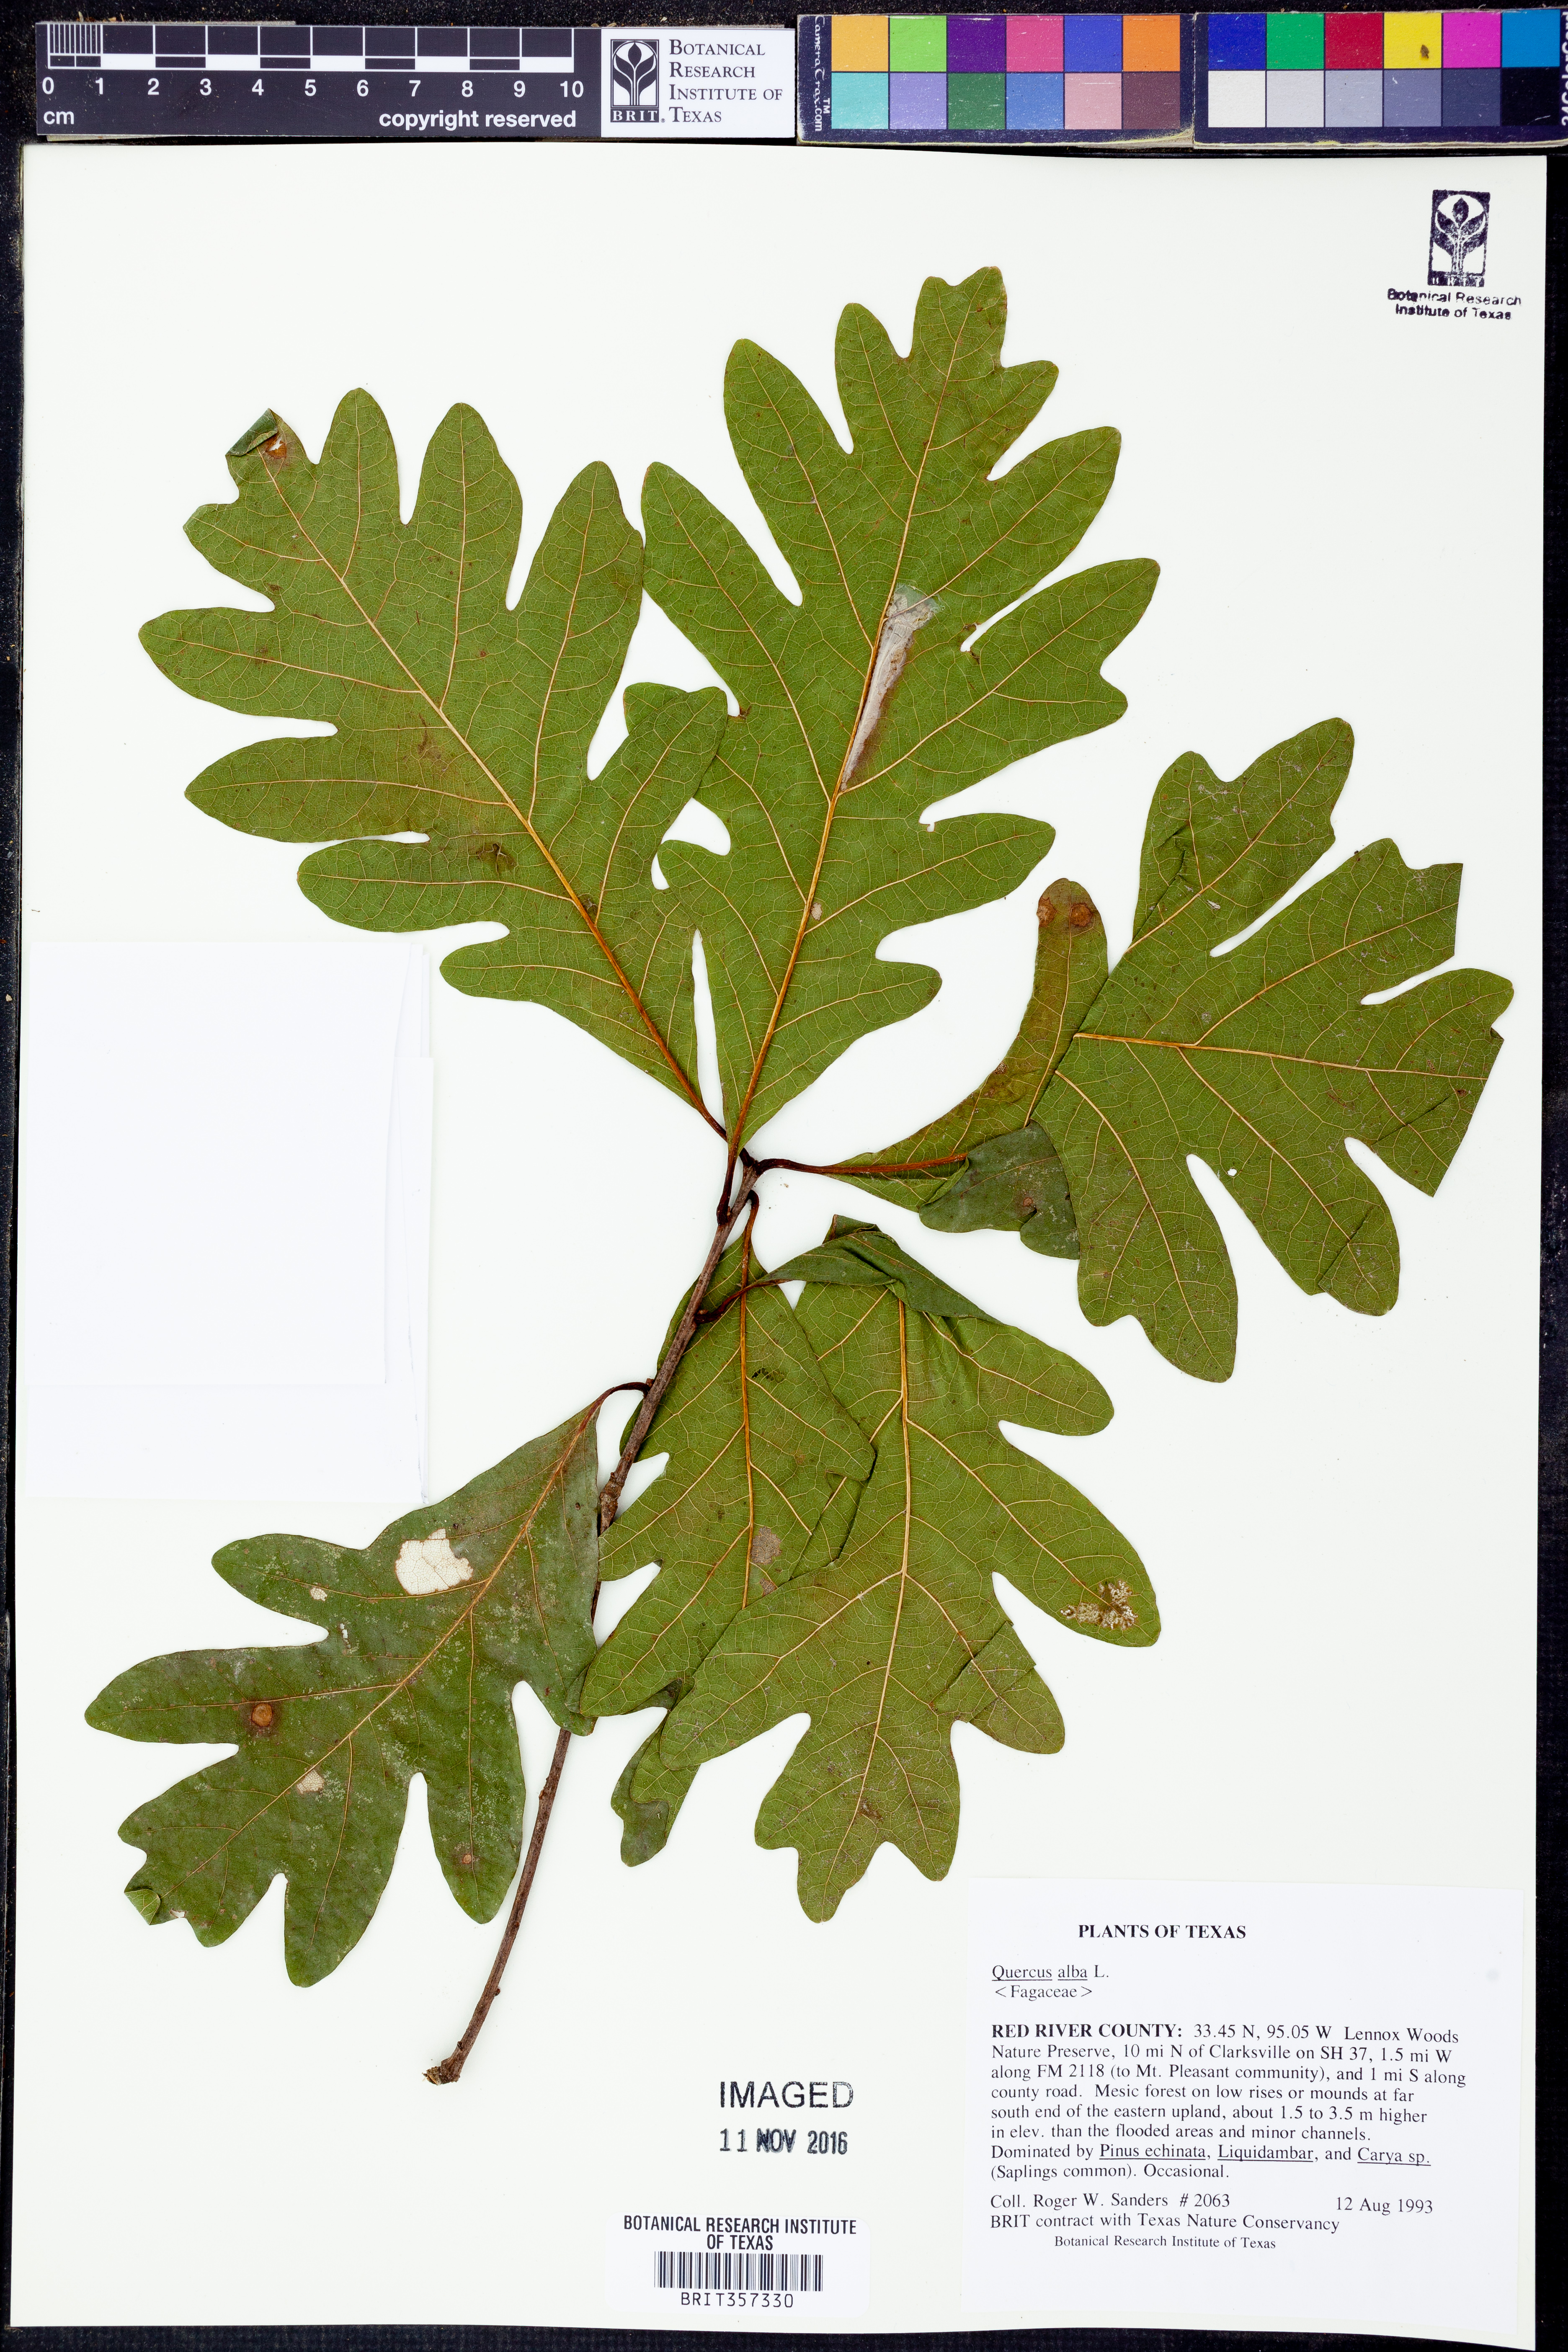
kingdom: Plantae
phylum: Tracheophyta
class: Magnoliopsida
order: Fagales
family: Fagaceae
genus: Quercus
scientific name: Quercus alba
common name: White oak
